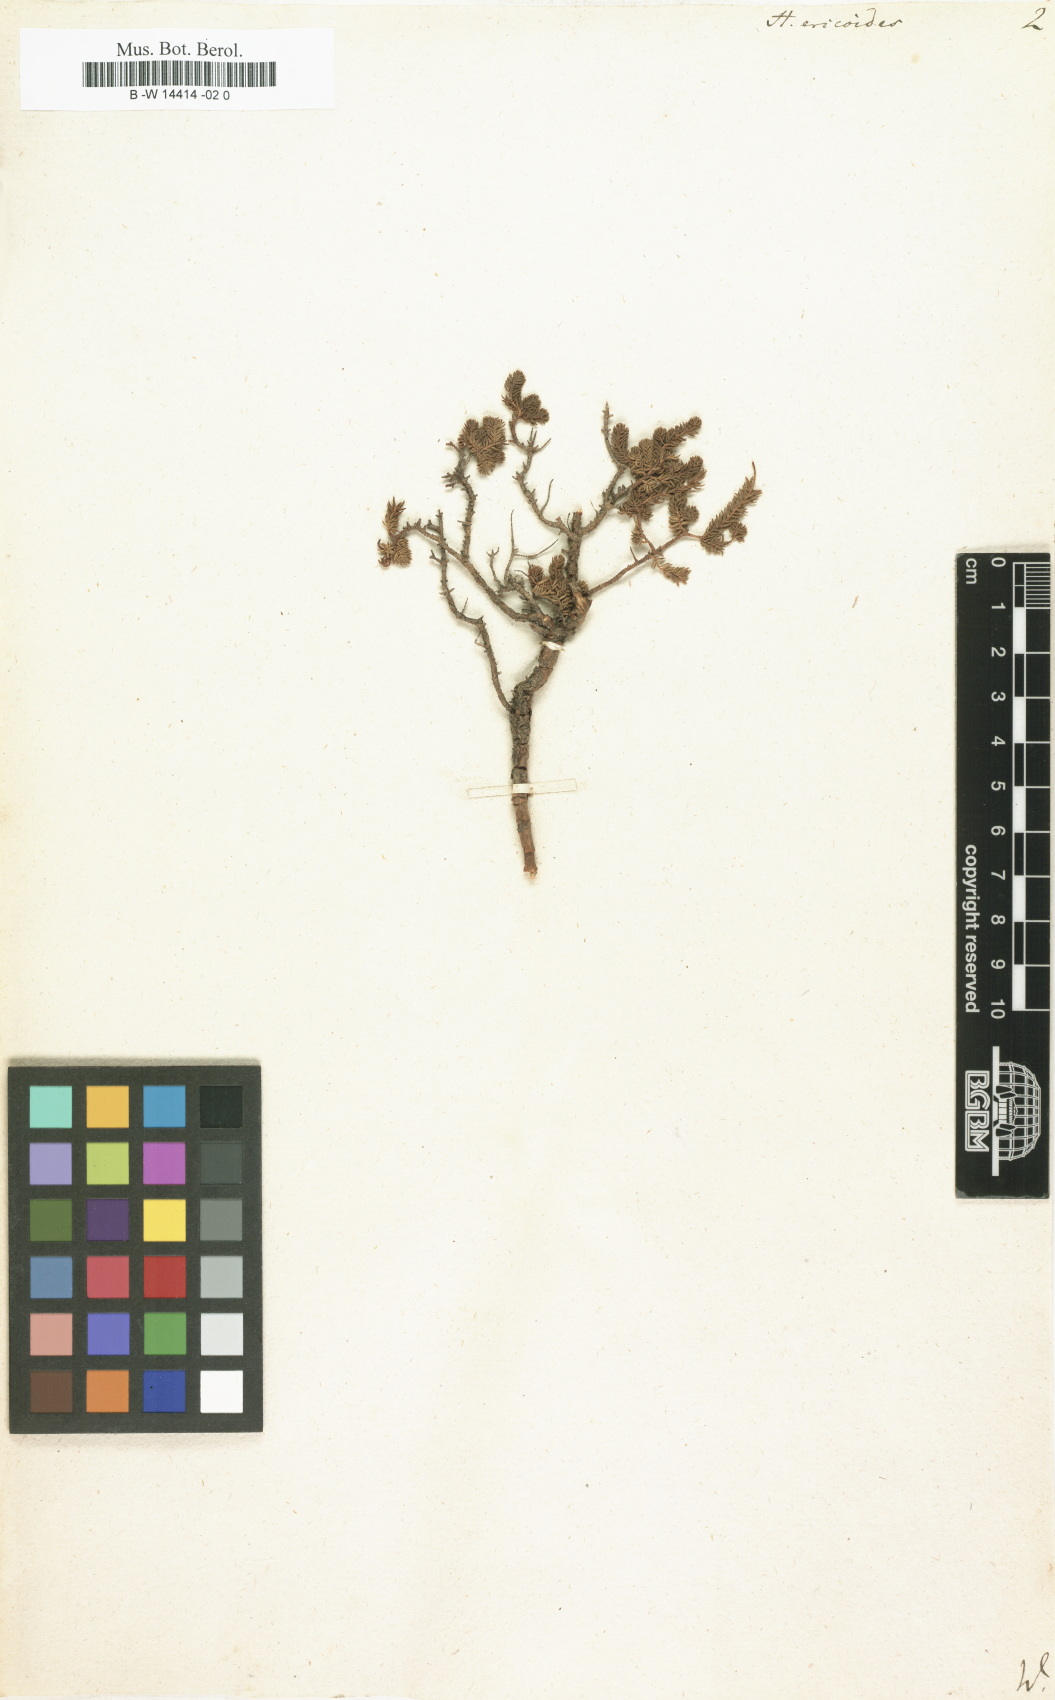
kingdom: Plantae
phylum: Tracheophyta
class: Magnoliopsida
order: Malpighiales
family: Hypericaceae
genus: Hypericum
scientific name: Hypericum ericoides
